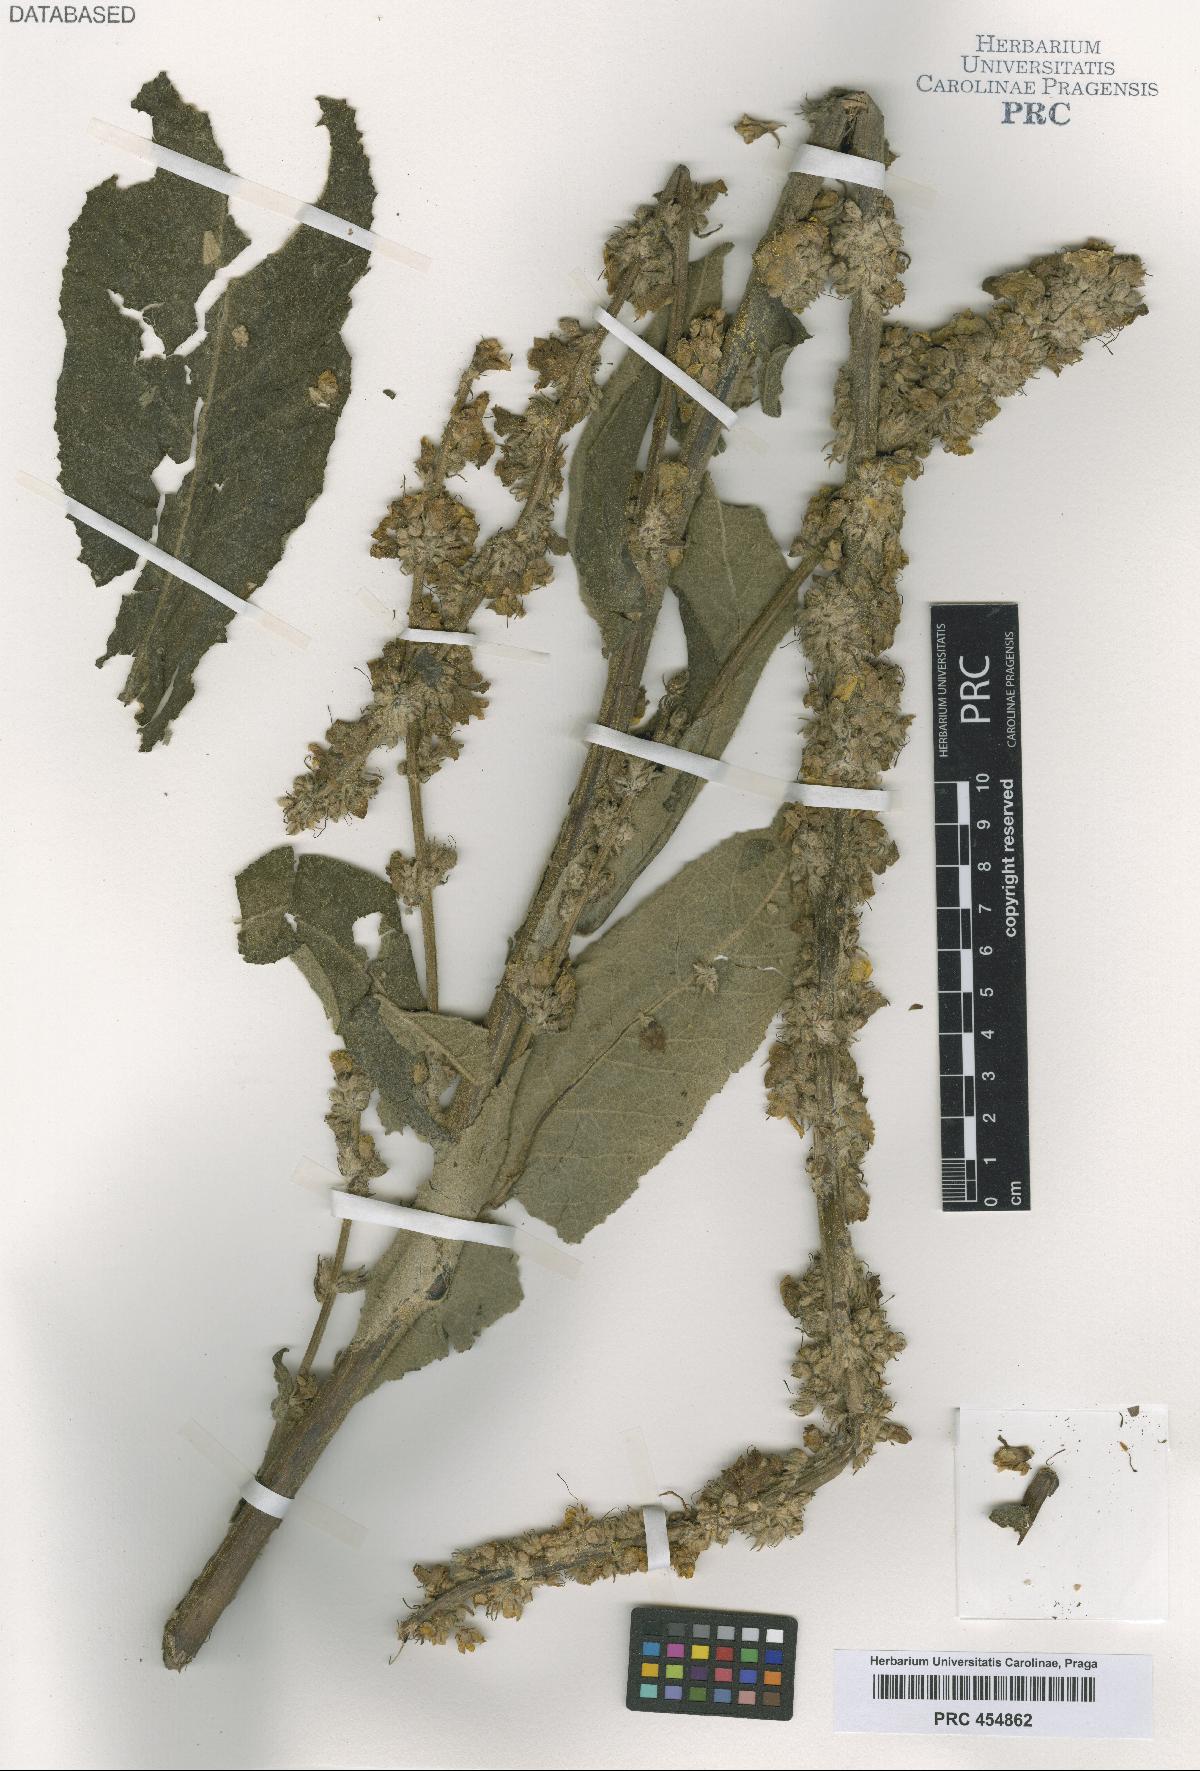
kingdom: Plantae
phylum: Tracheophyta
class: Magnoliopsida
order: Lamiales
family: Scrophulariaceae
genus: Verbascum
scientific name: Verbascum dominii
